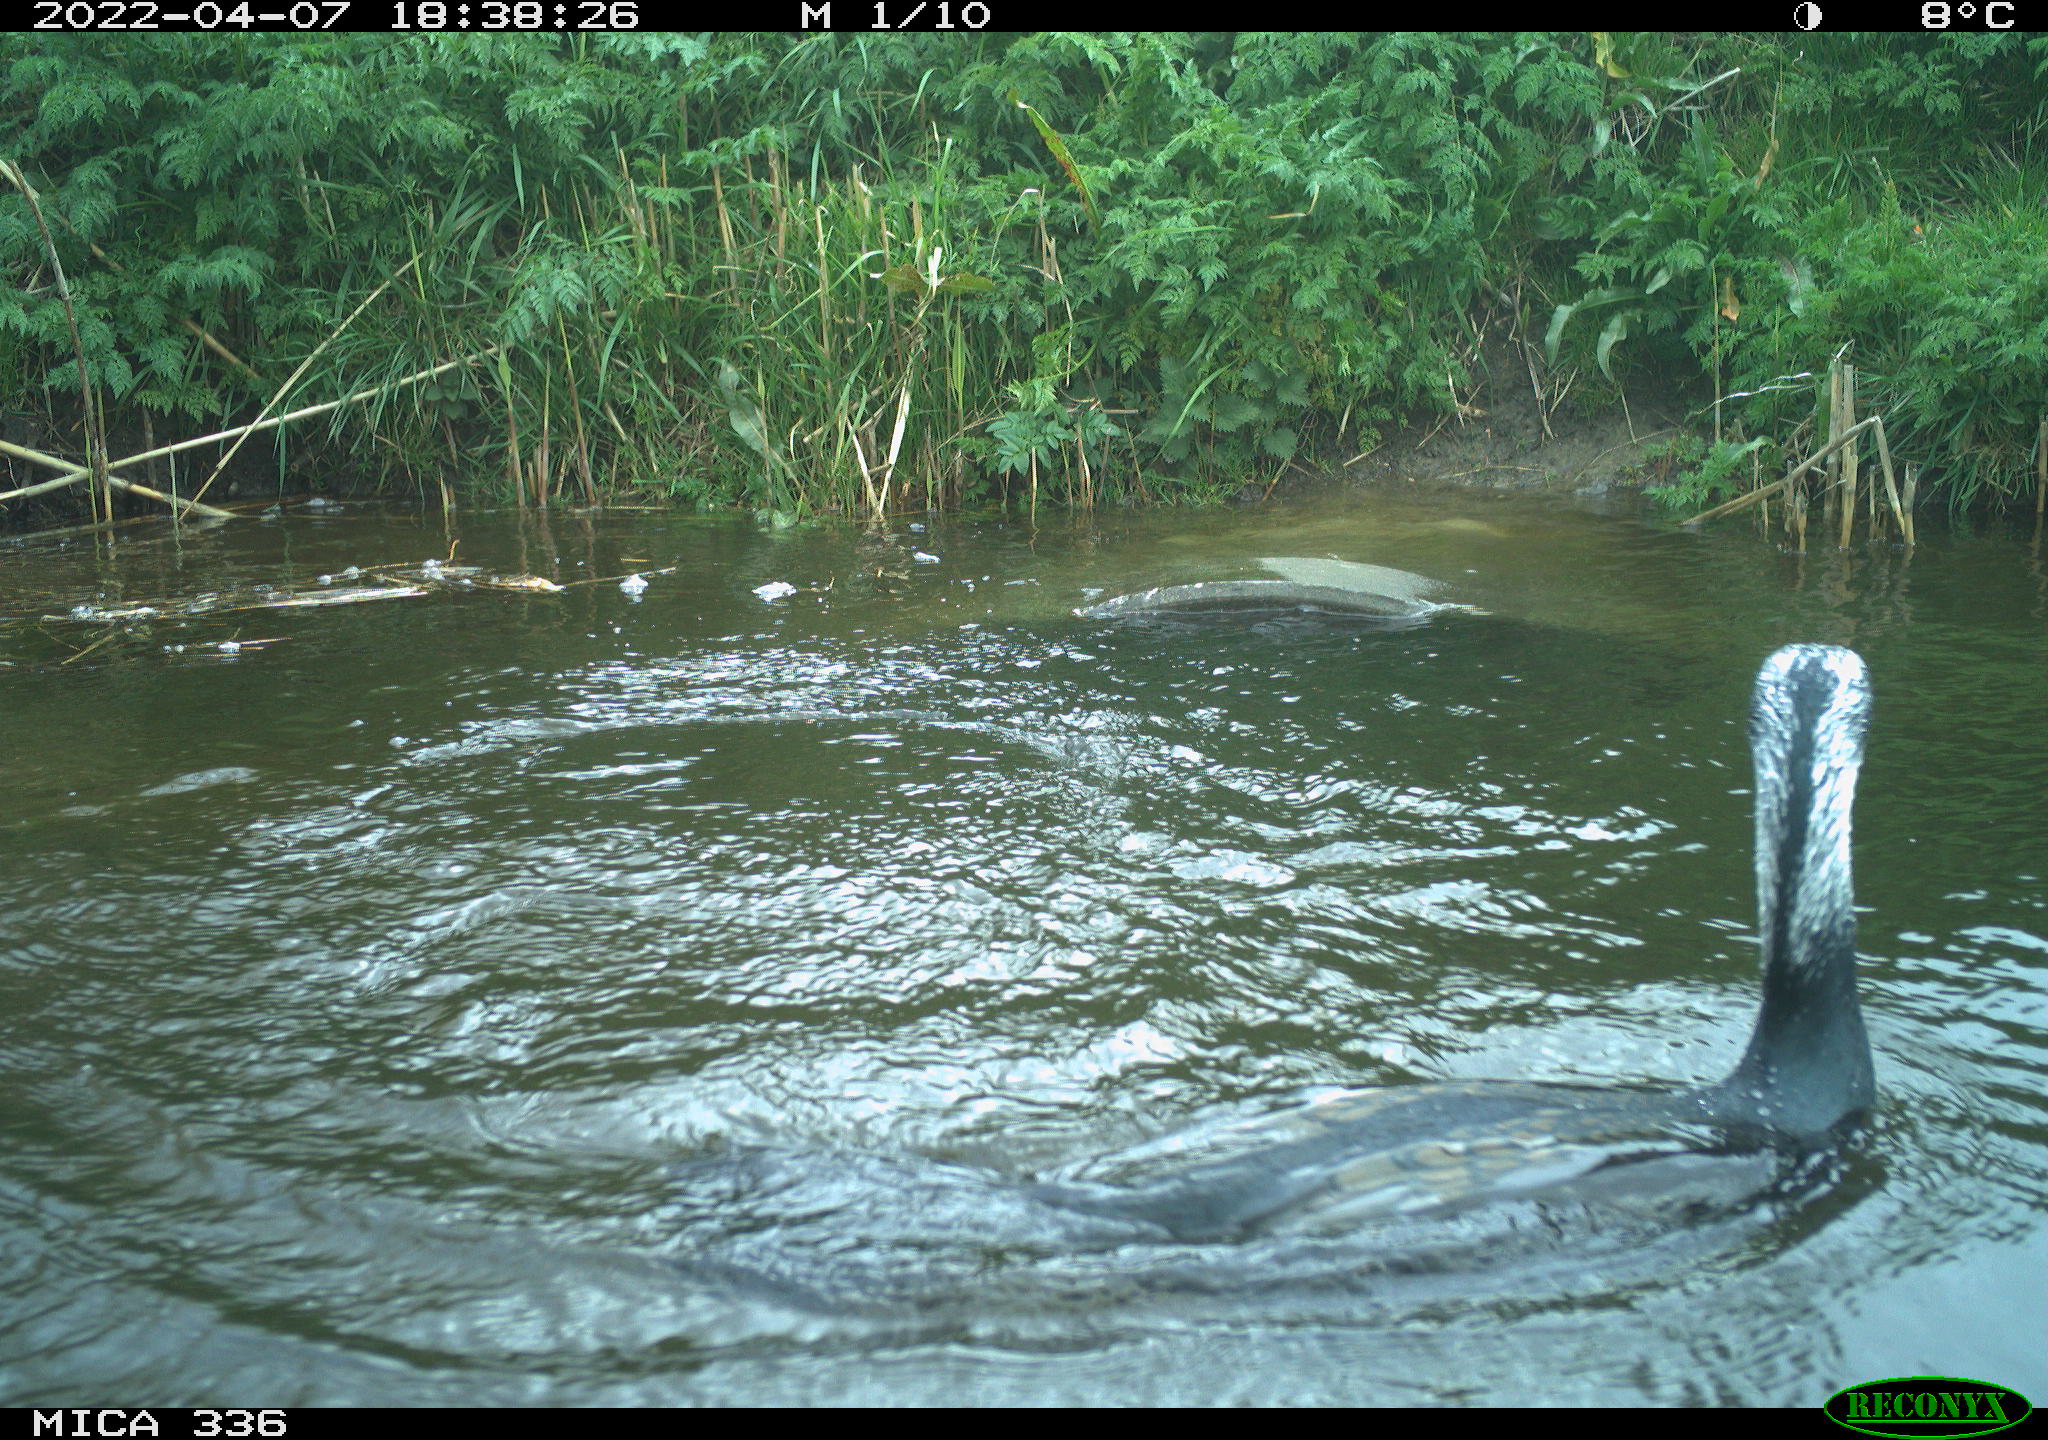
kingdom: Animalia
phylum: Chordata
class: Aves
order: Suliformes
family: Phalacrocoracidae
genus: Phalacrocorax
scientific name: Phalacrocorax carbo
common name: Great cormorant
